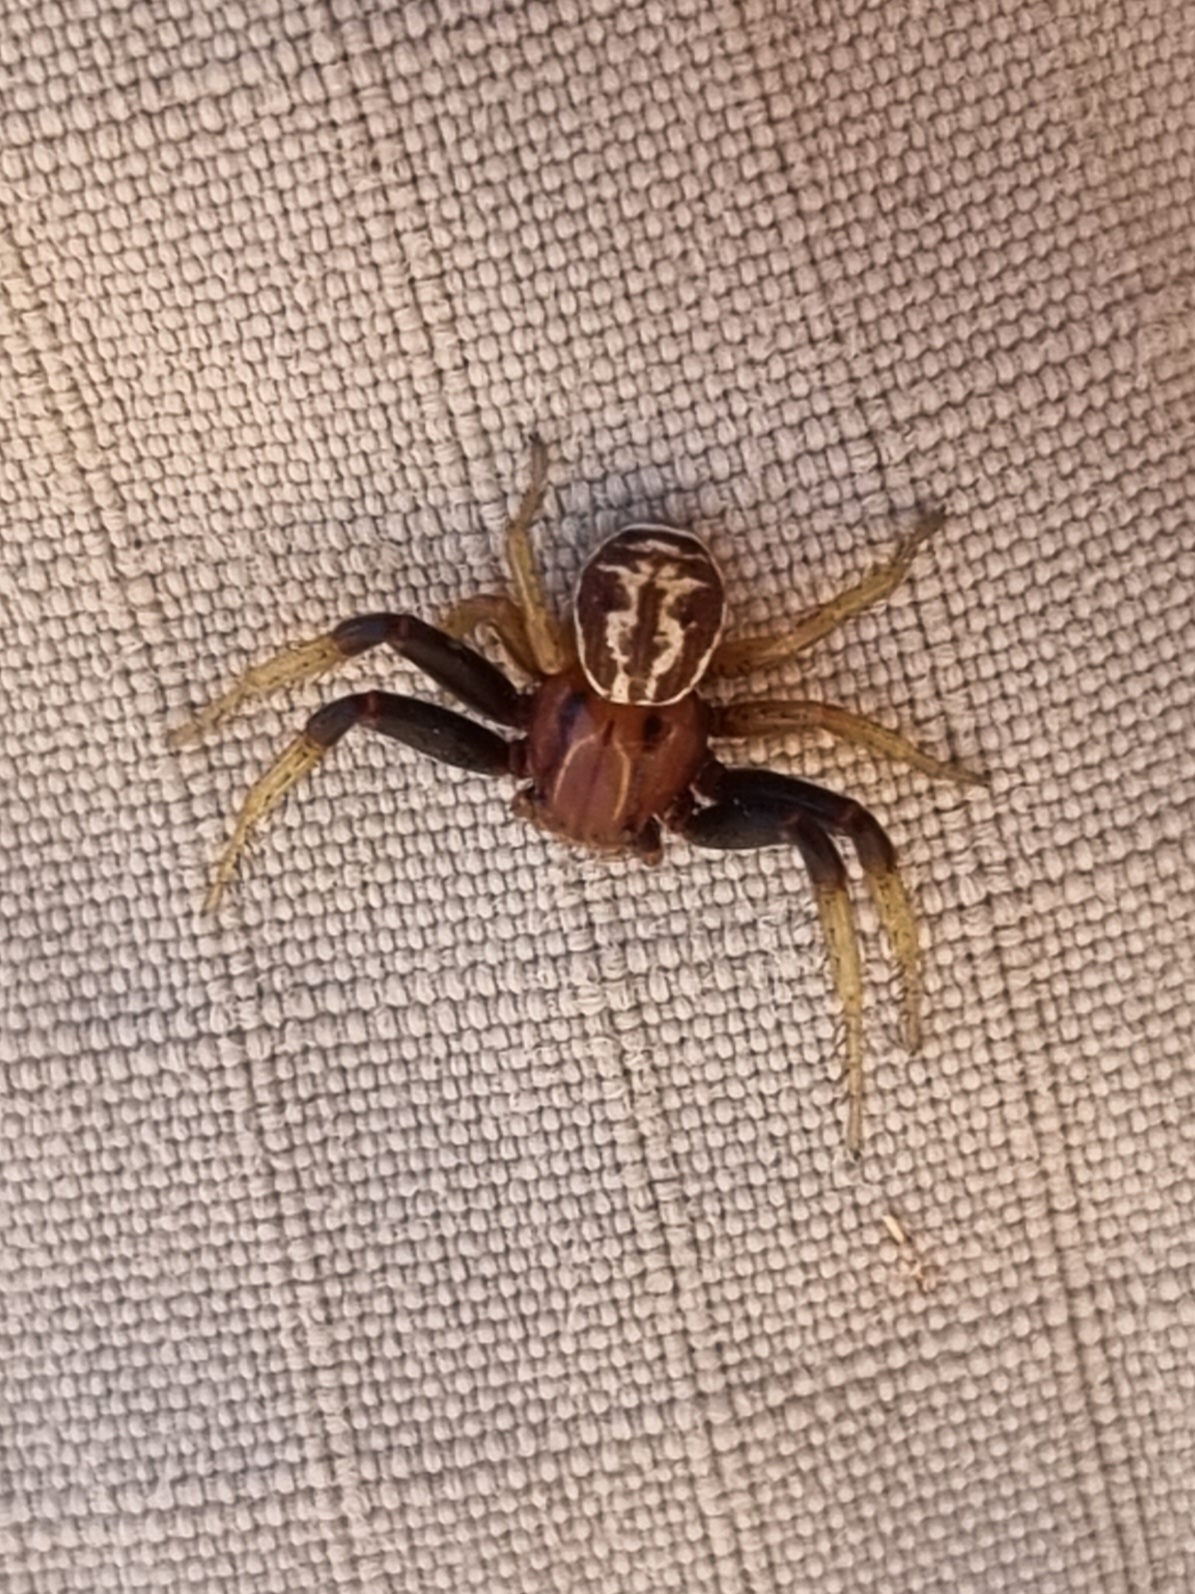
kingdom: Animalia
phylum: Arthropoda
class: Arachnida
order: Araneae
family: Thomisidae
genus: Xysticus
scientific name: Xysticus erraticus
